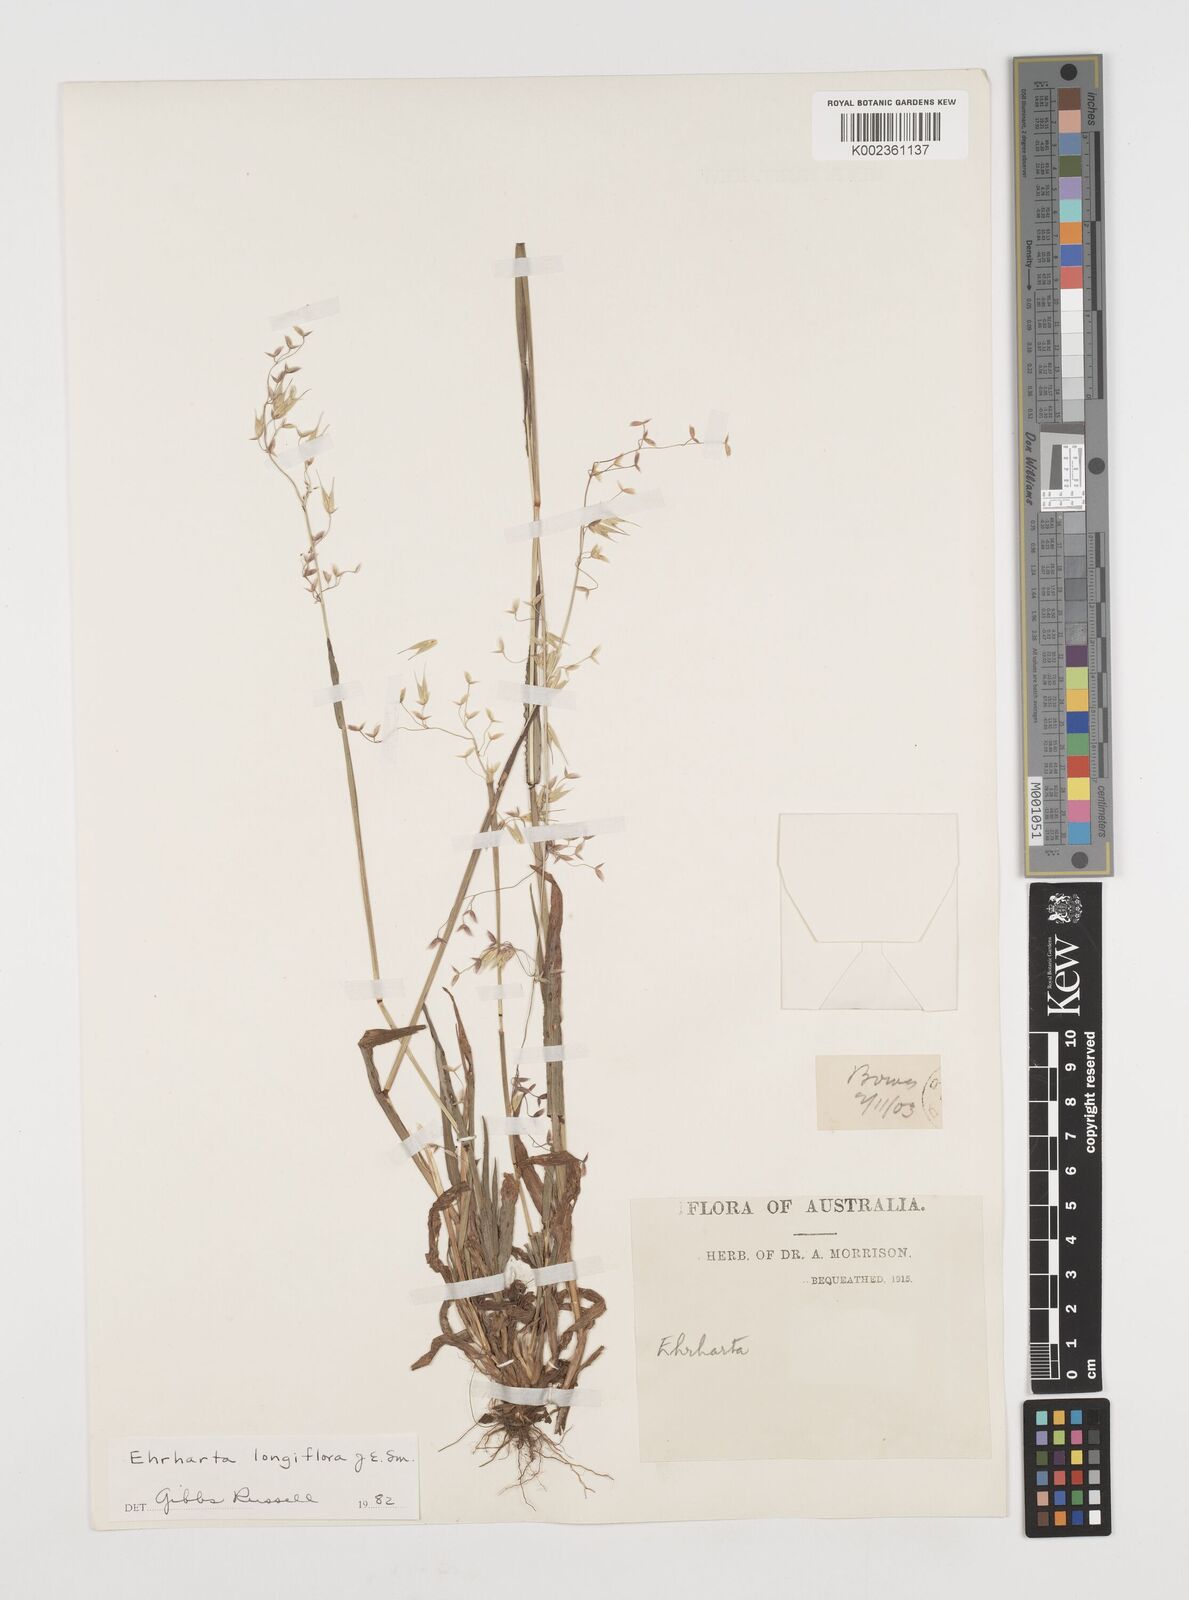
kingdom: Plantae
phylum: Tracheophyta
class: Liliopsida
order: Poales
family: Poaceae
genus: Ehrharta
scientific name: Ehrharta longiflora
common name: Longflowered veldtgrass
